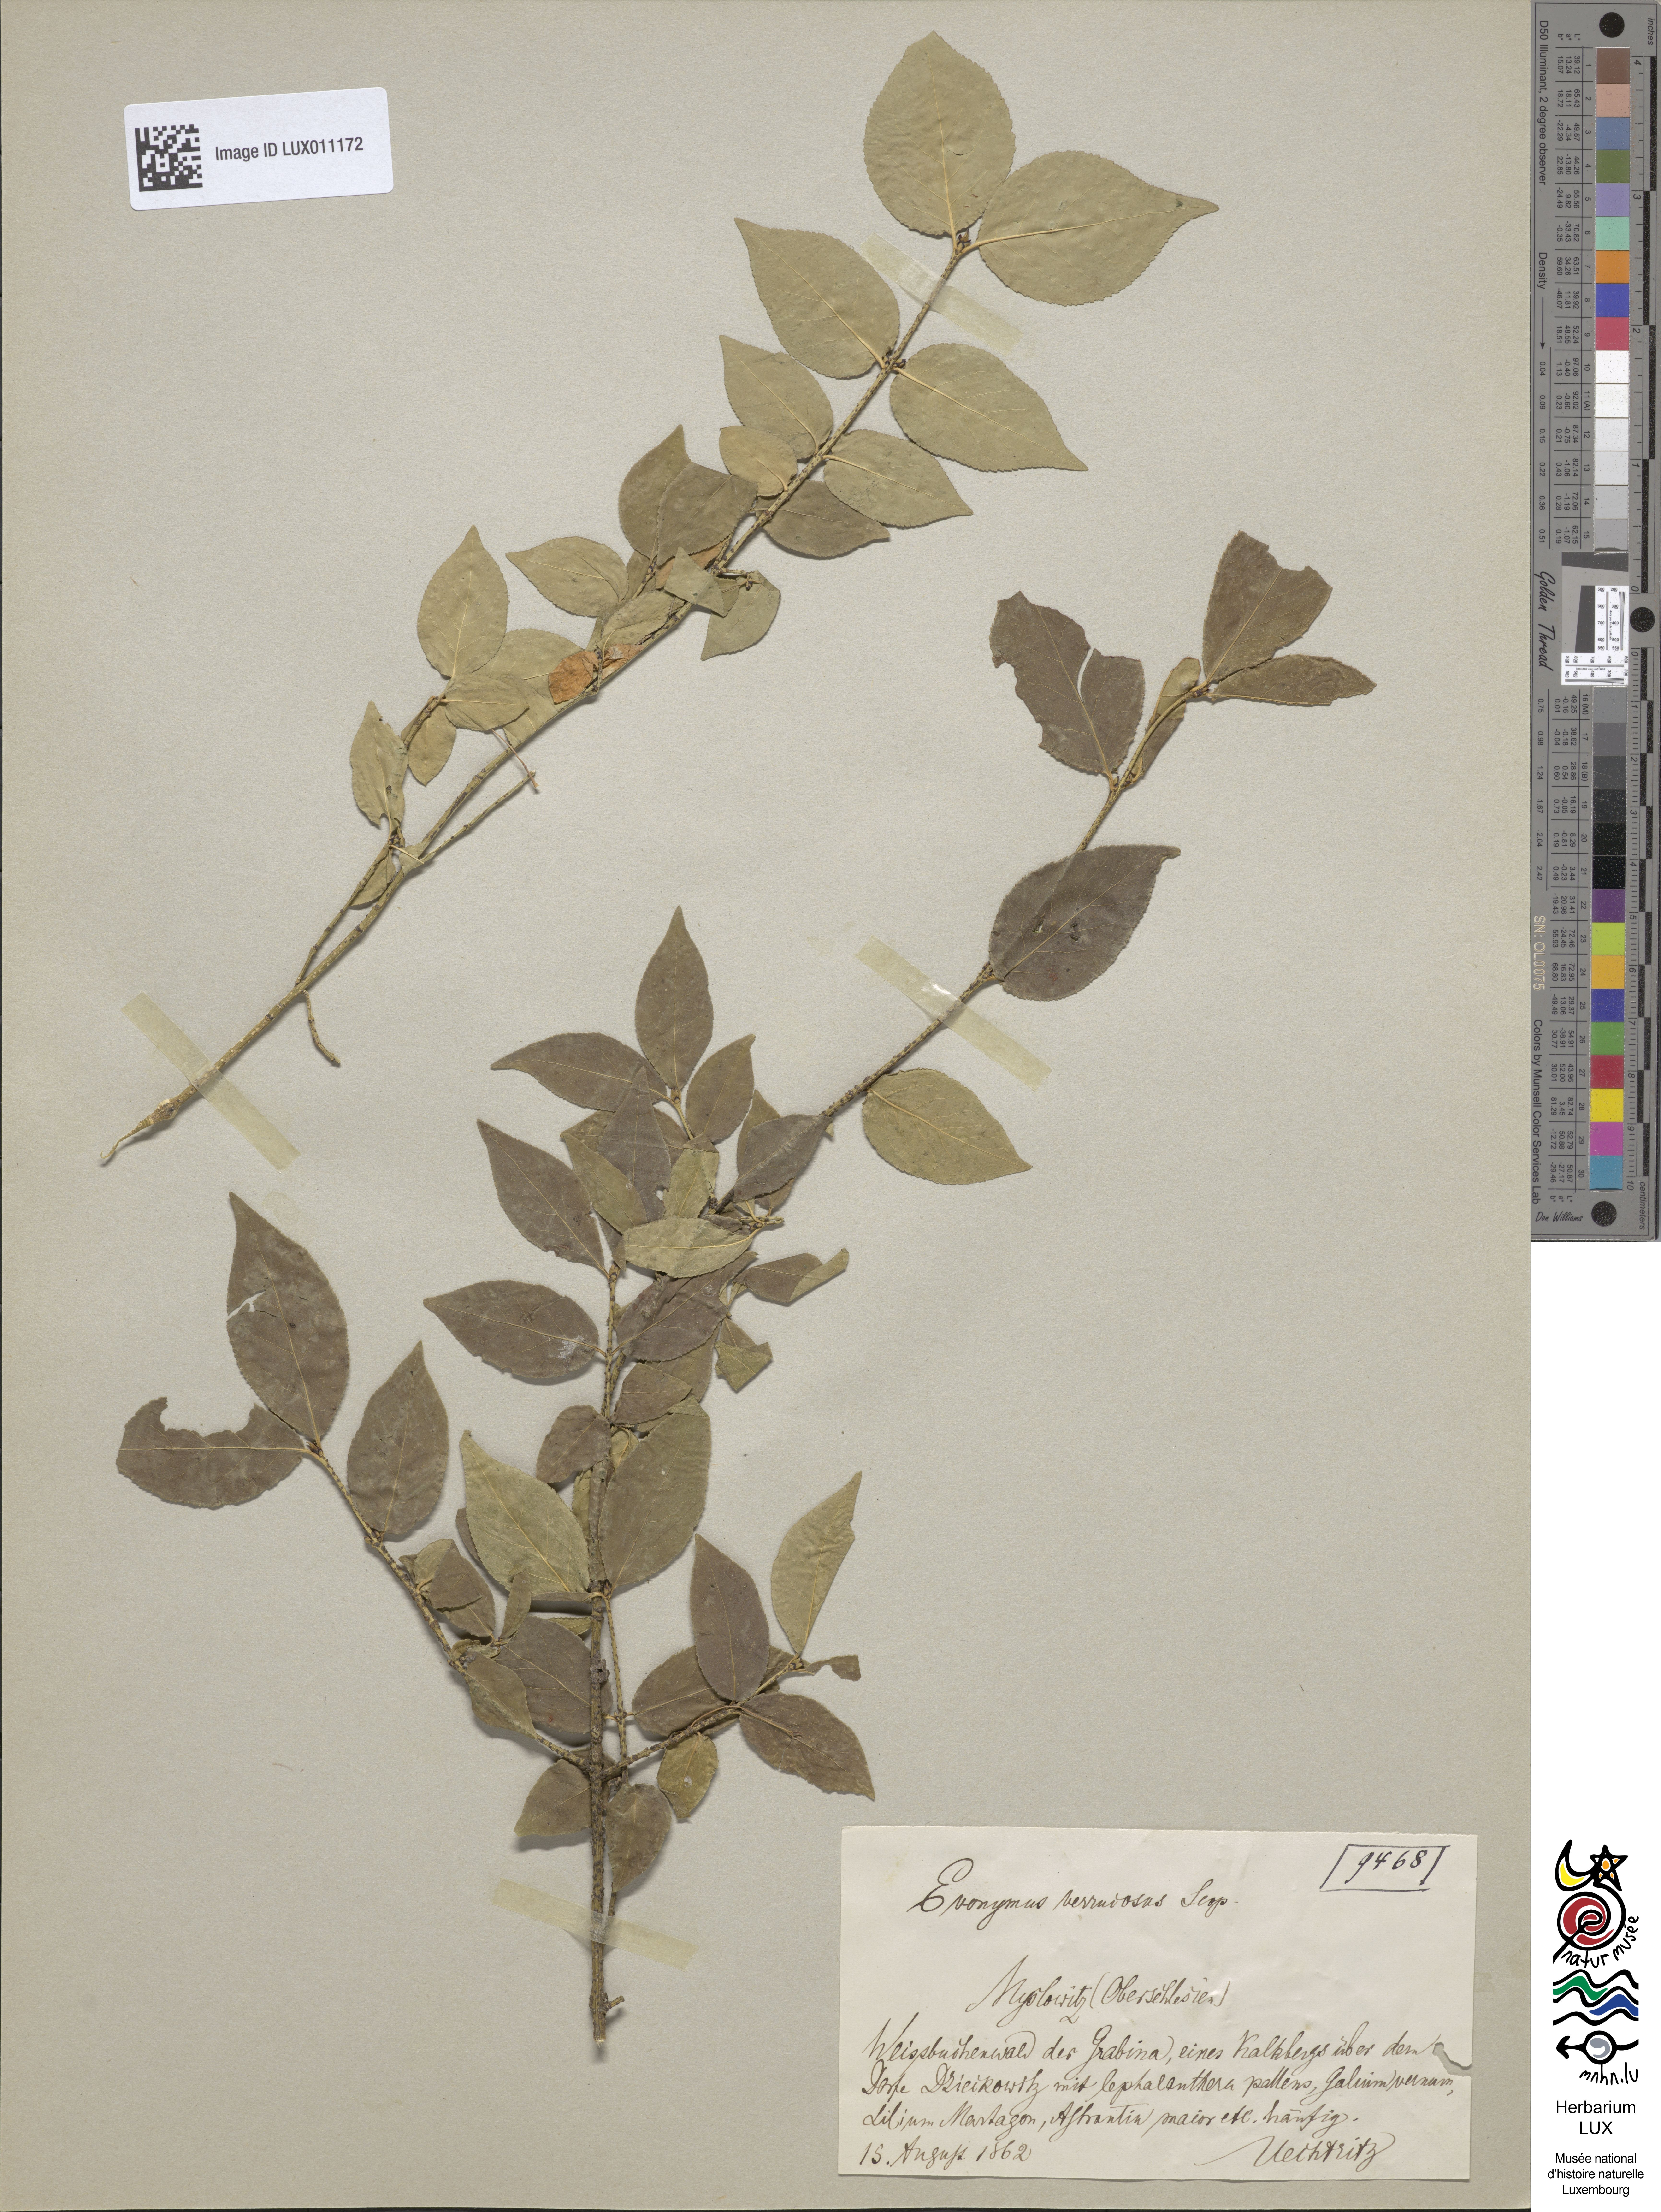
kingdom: Plantae
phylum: Tracheophyta
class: Magnoliopsida
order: Celastrales
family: Celastraceae
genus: Euonymus
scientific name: Euonymus verrucosus
